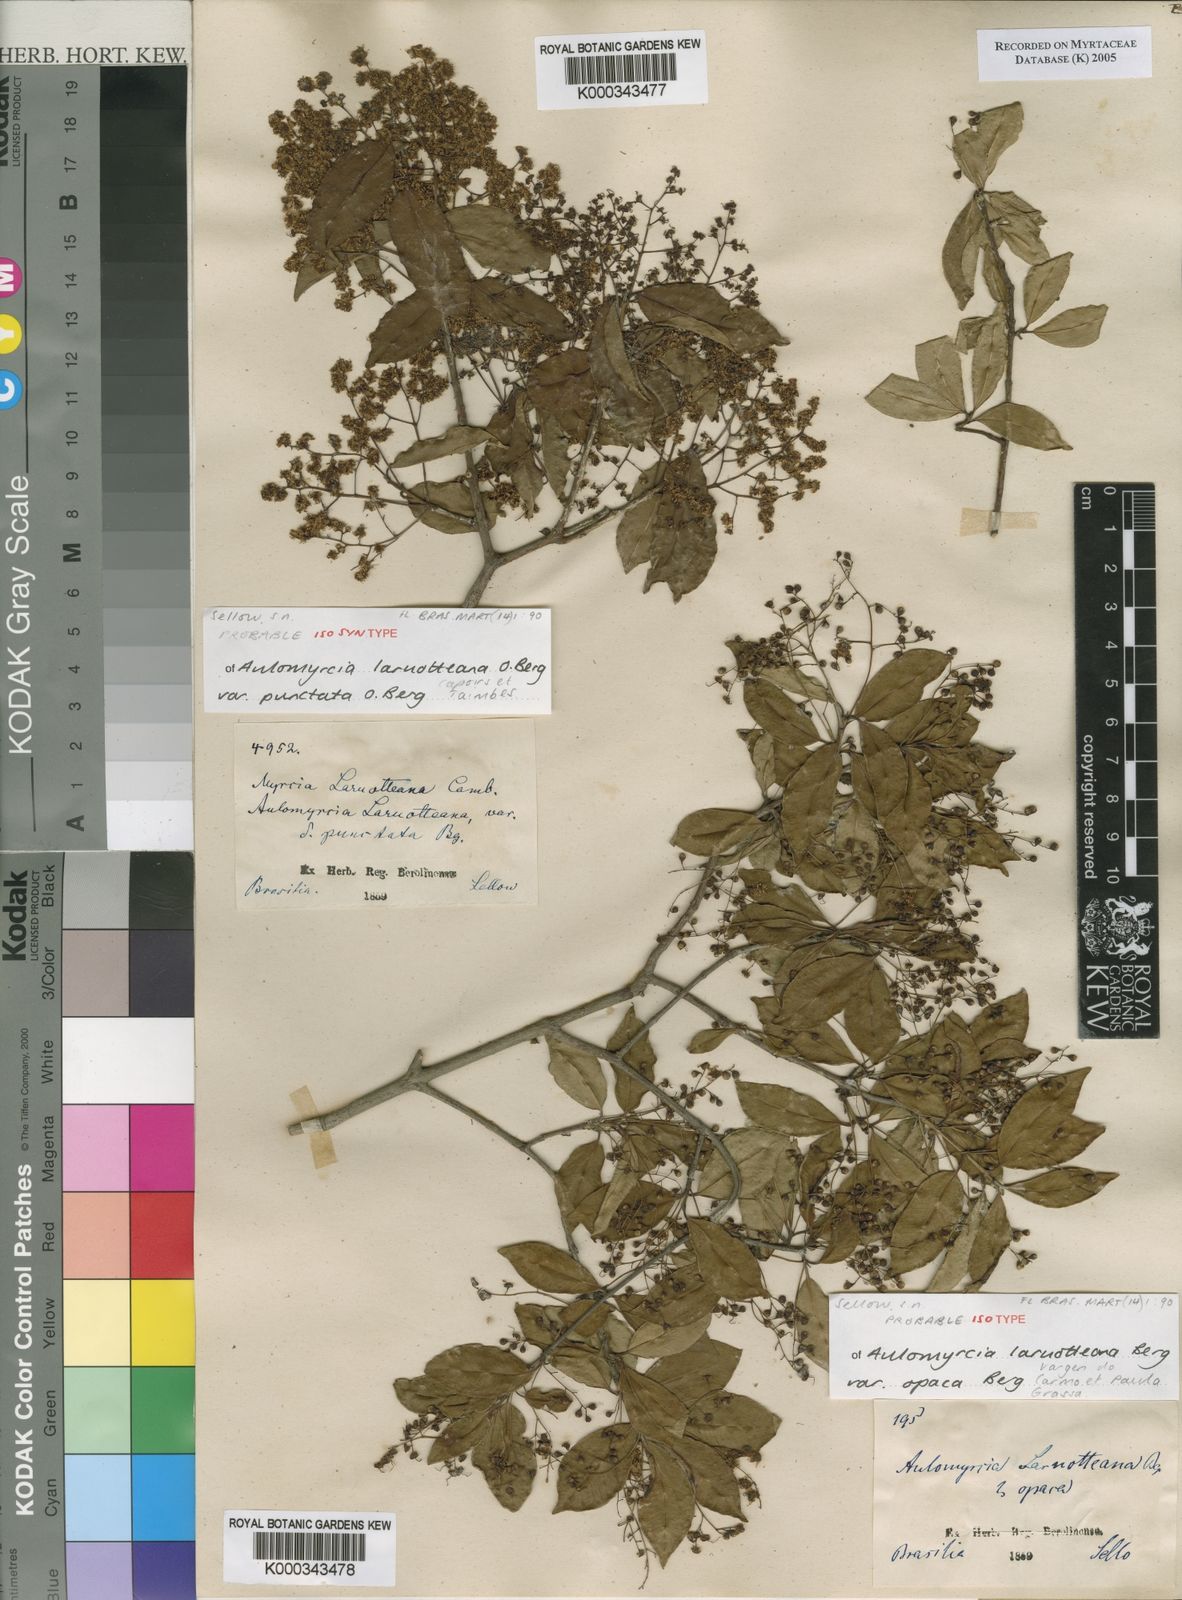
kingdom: Plantae
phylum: Tracheophyta
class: Magnoliopsida
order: Myrtales
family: Myrtaceae
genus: Myrcia
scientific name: Myrcia laruotteana
